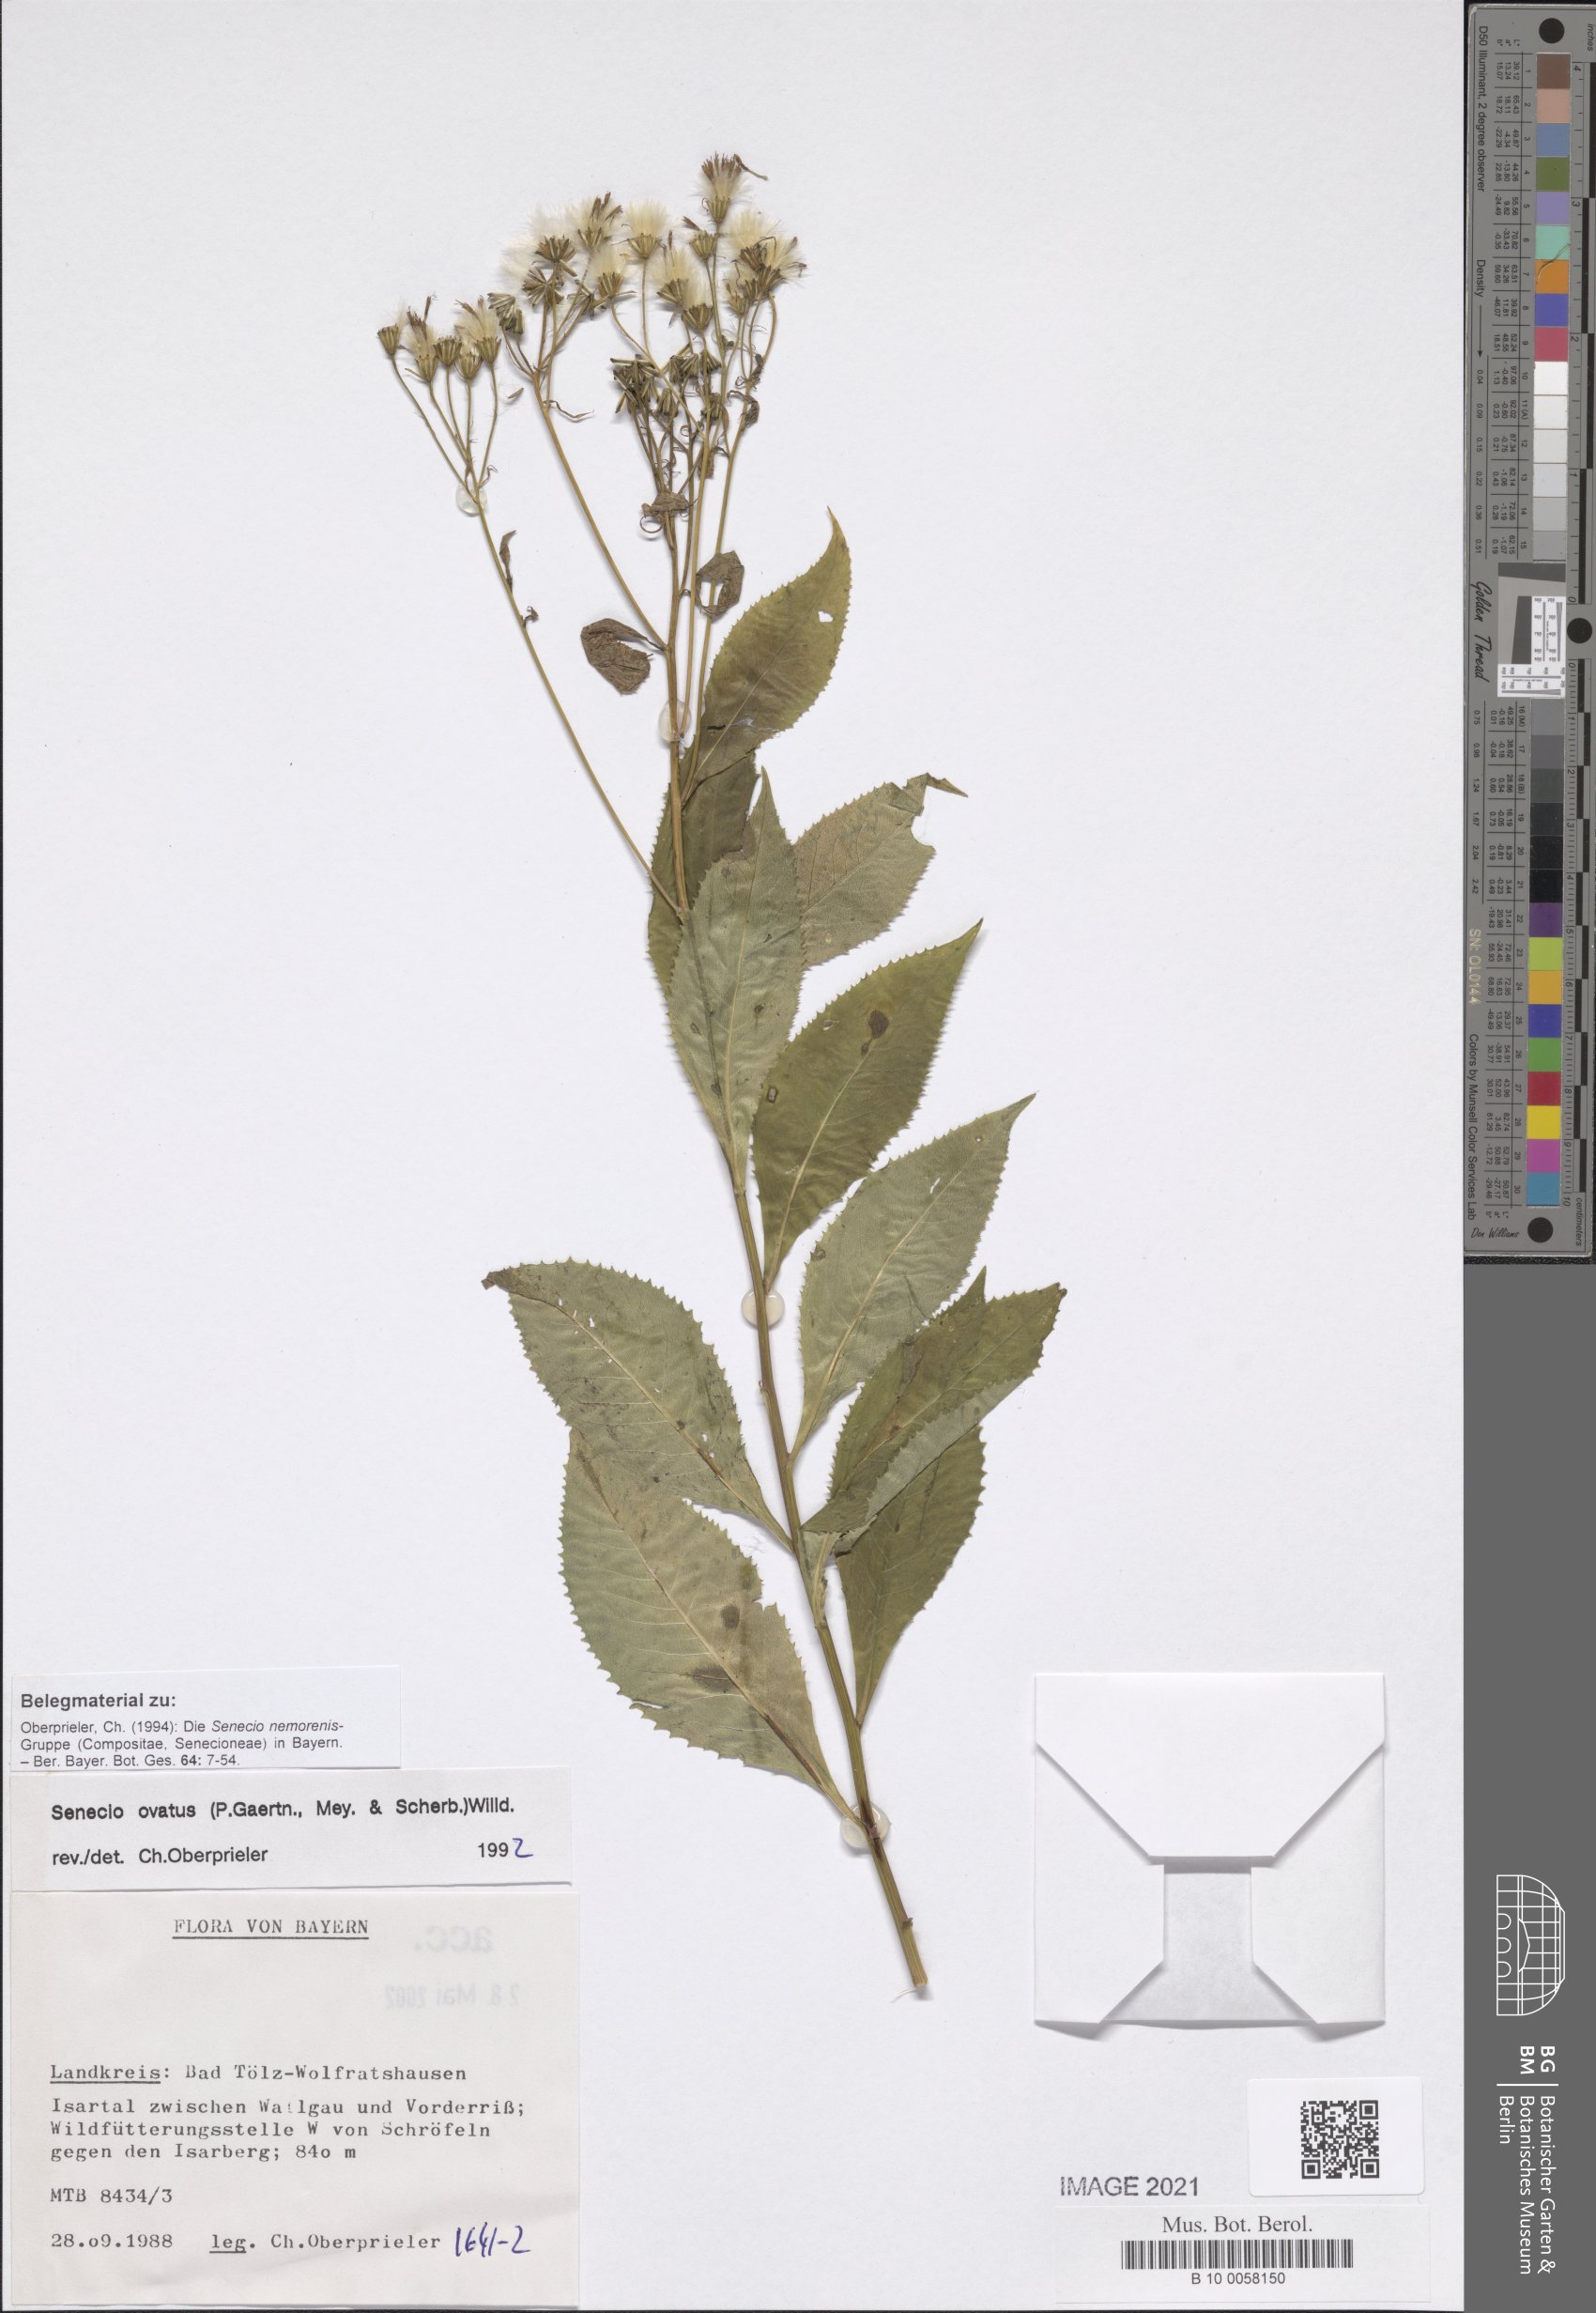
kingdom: Plantae
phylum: Tracheophyta
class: Magnoliopsida
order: Asterales
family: Asteraceae
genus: Senecio
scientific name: Senecio ovatus
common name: Wood ragwort
